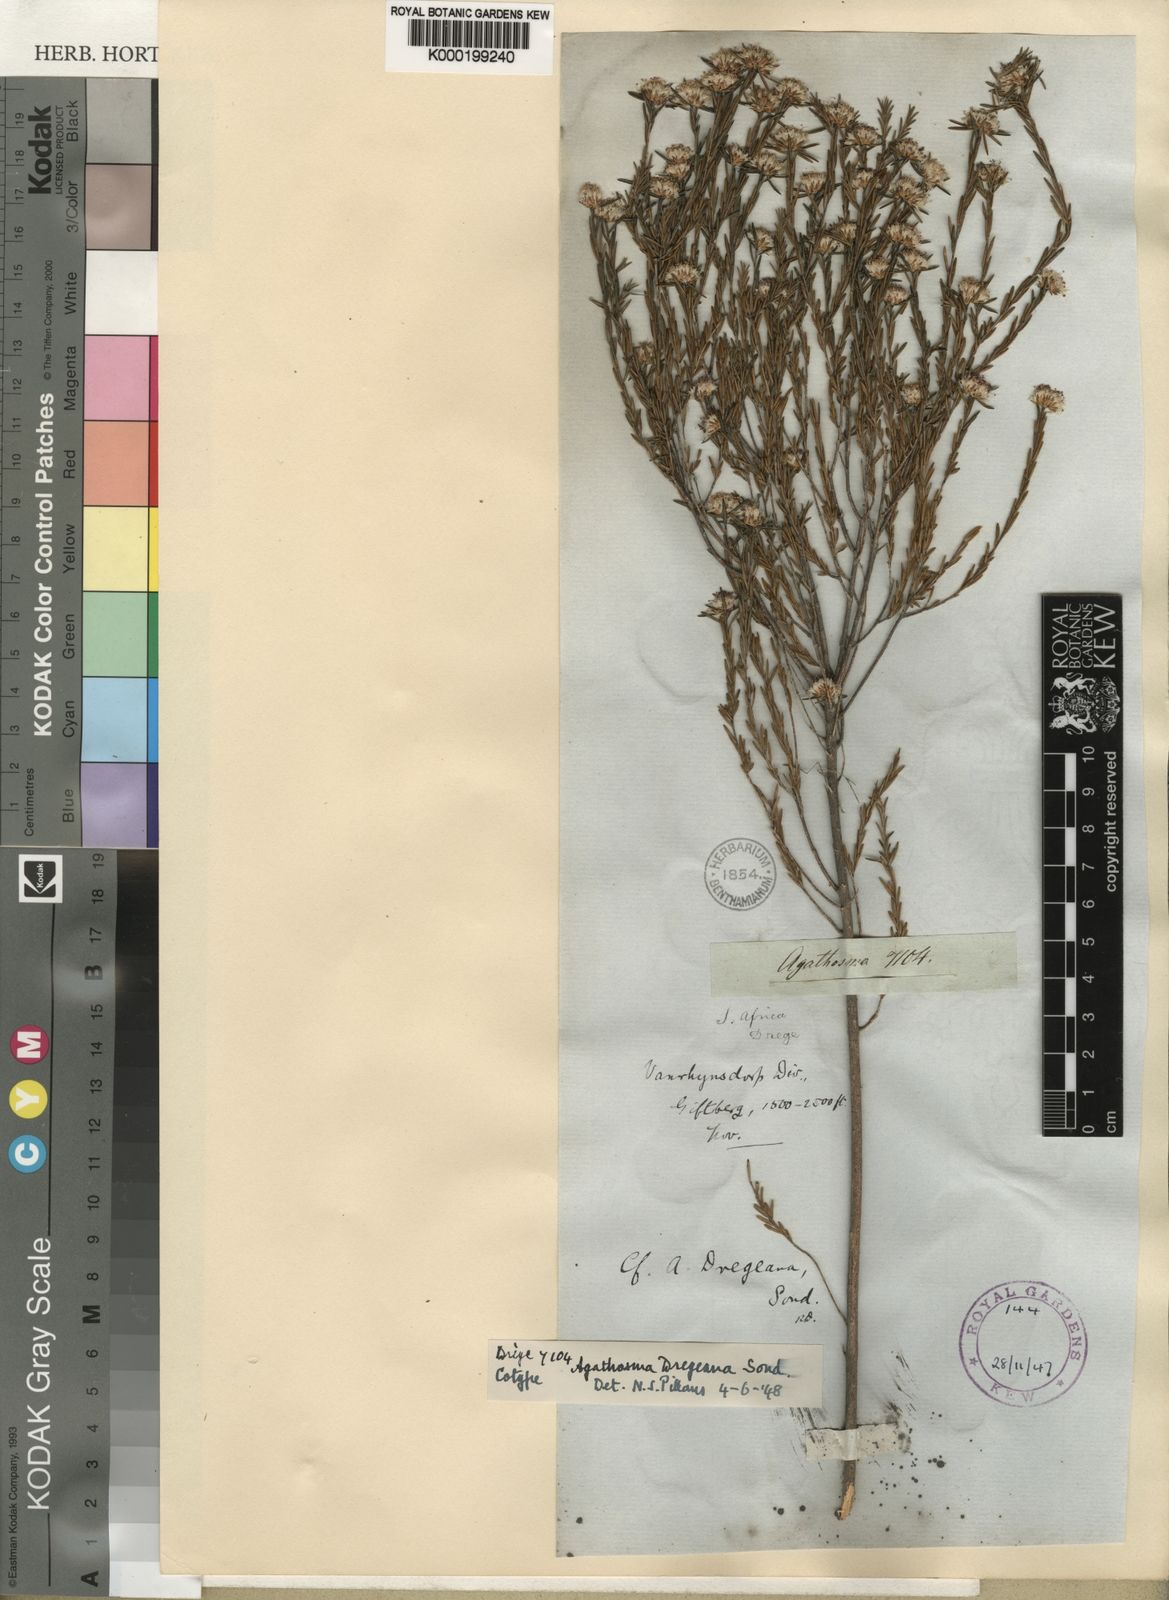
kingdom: Plantae
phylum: Tracheophyta
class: Magnoliopsida
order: Sapindales
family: Rutaceae
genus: Agathosma
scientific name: Agathosma dregeana
